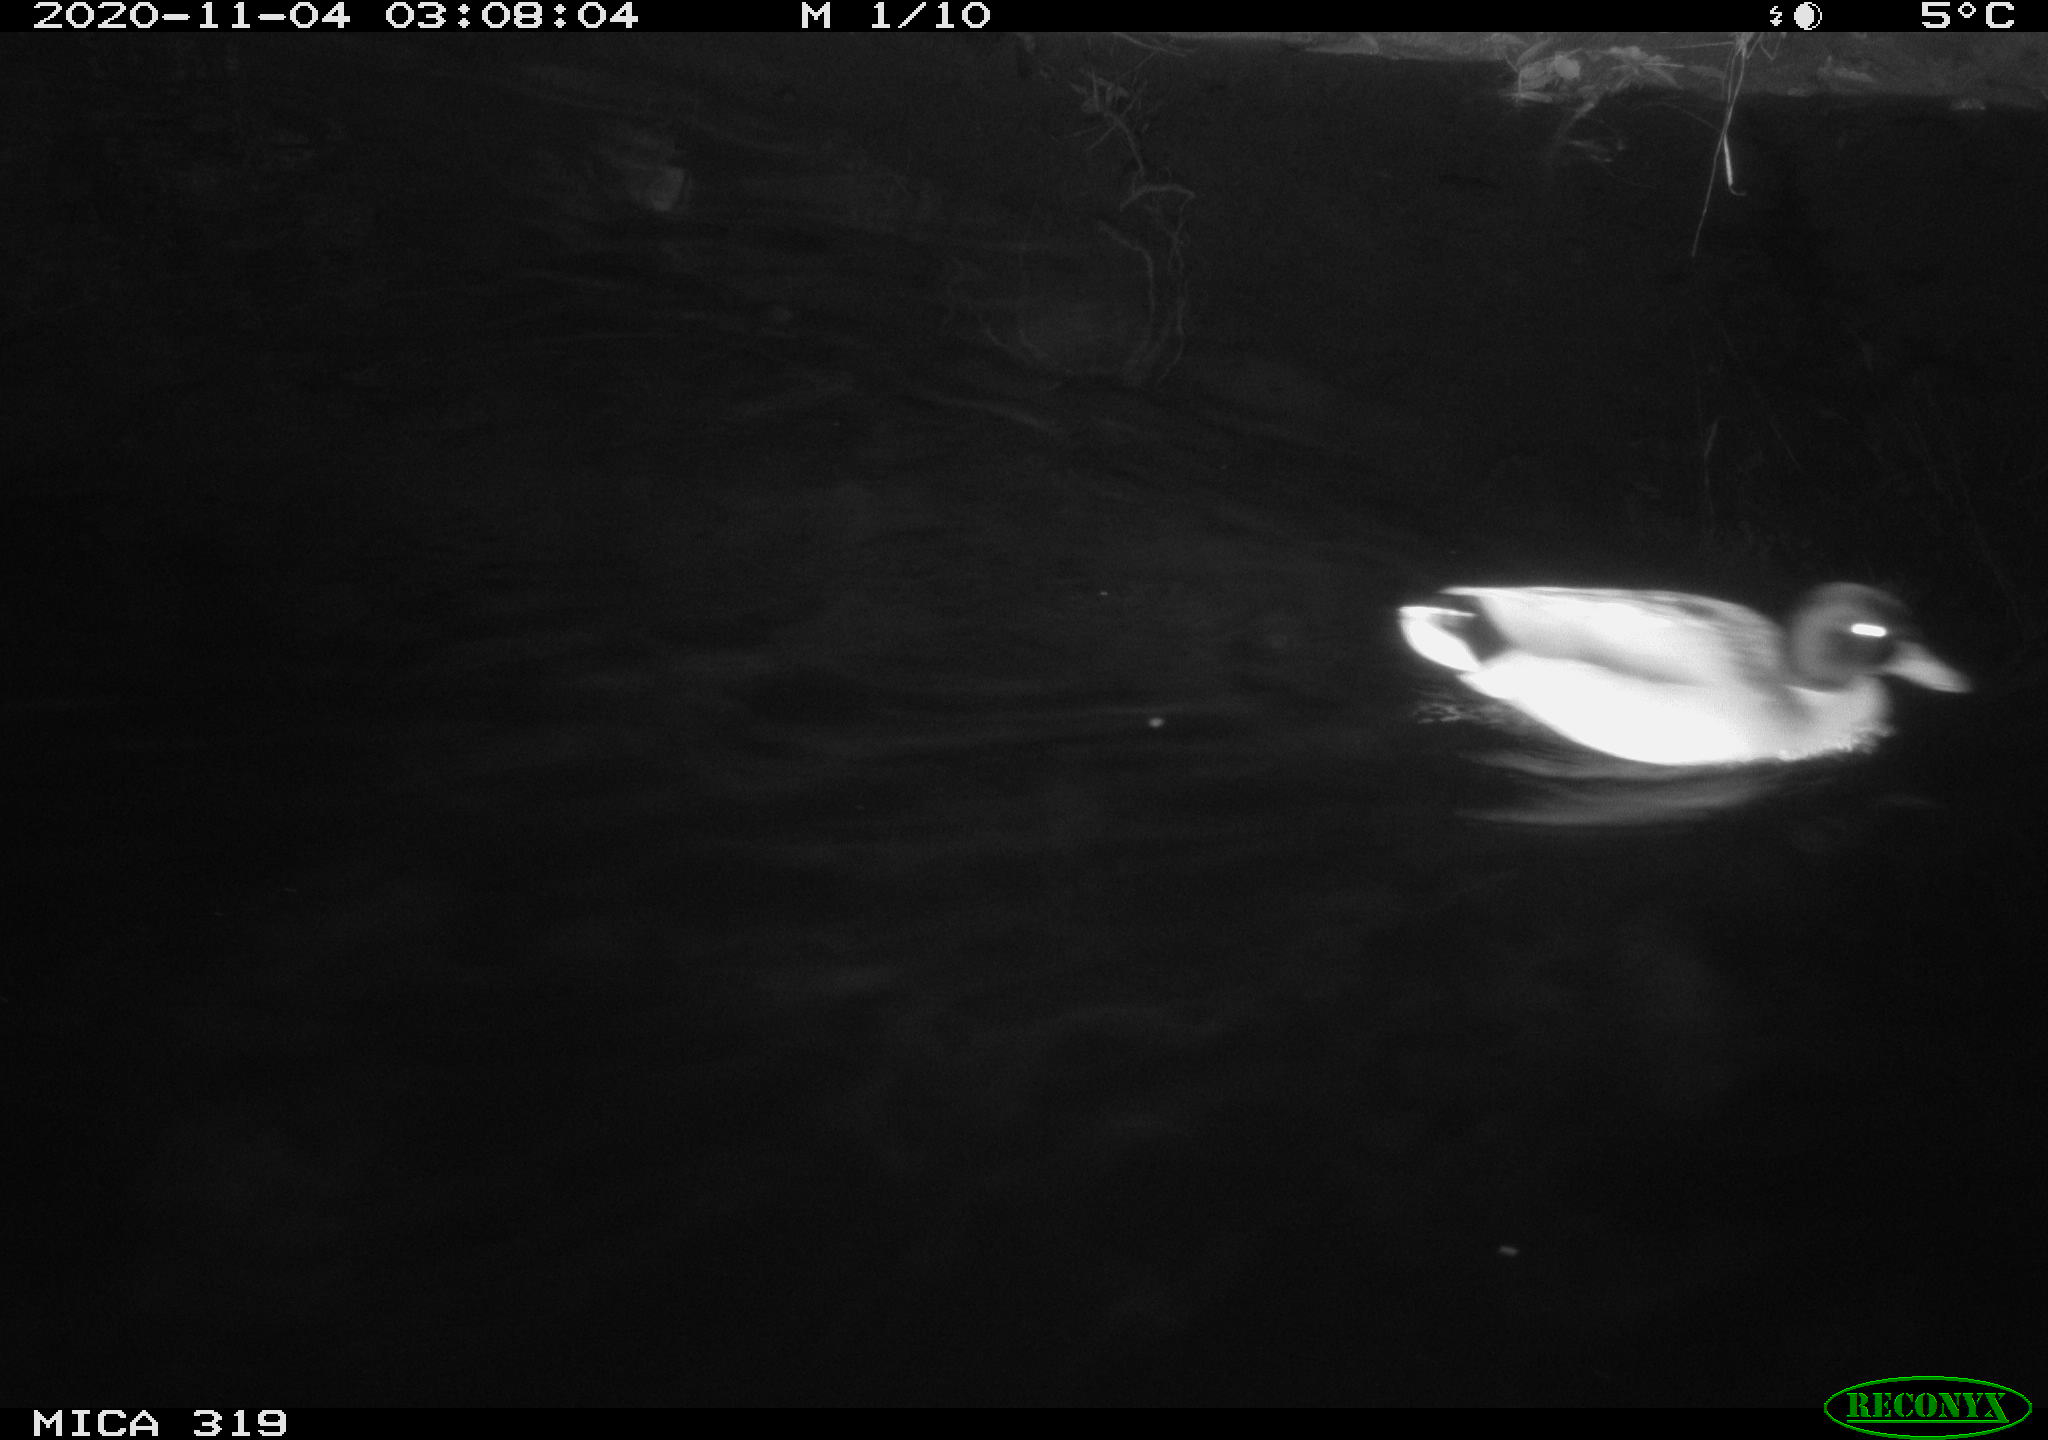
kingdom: Animalia
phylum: Chordata
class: Aves
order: Anseriformes
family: Anatidae
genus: Anas
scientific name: Anas platyrhynchos
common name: Mallard
